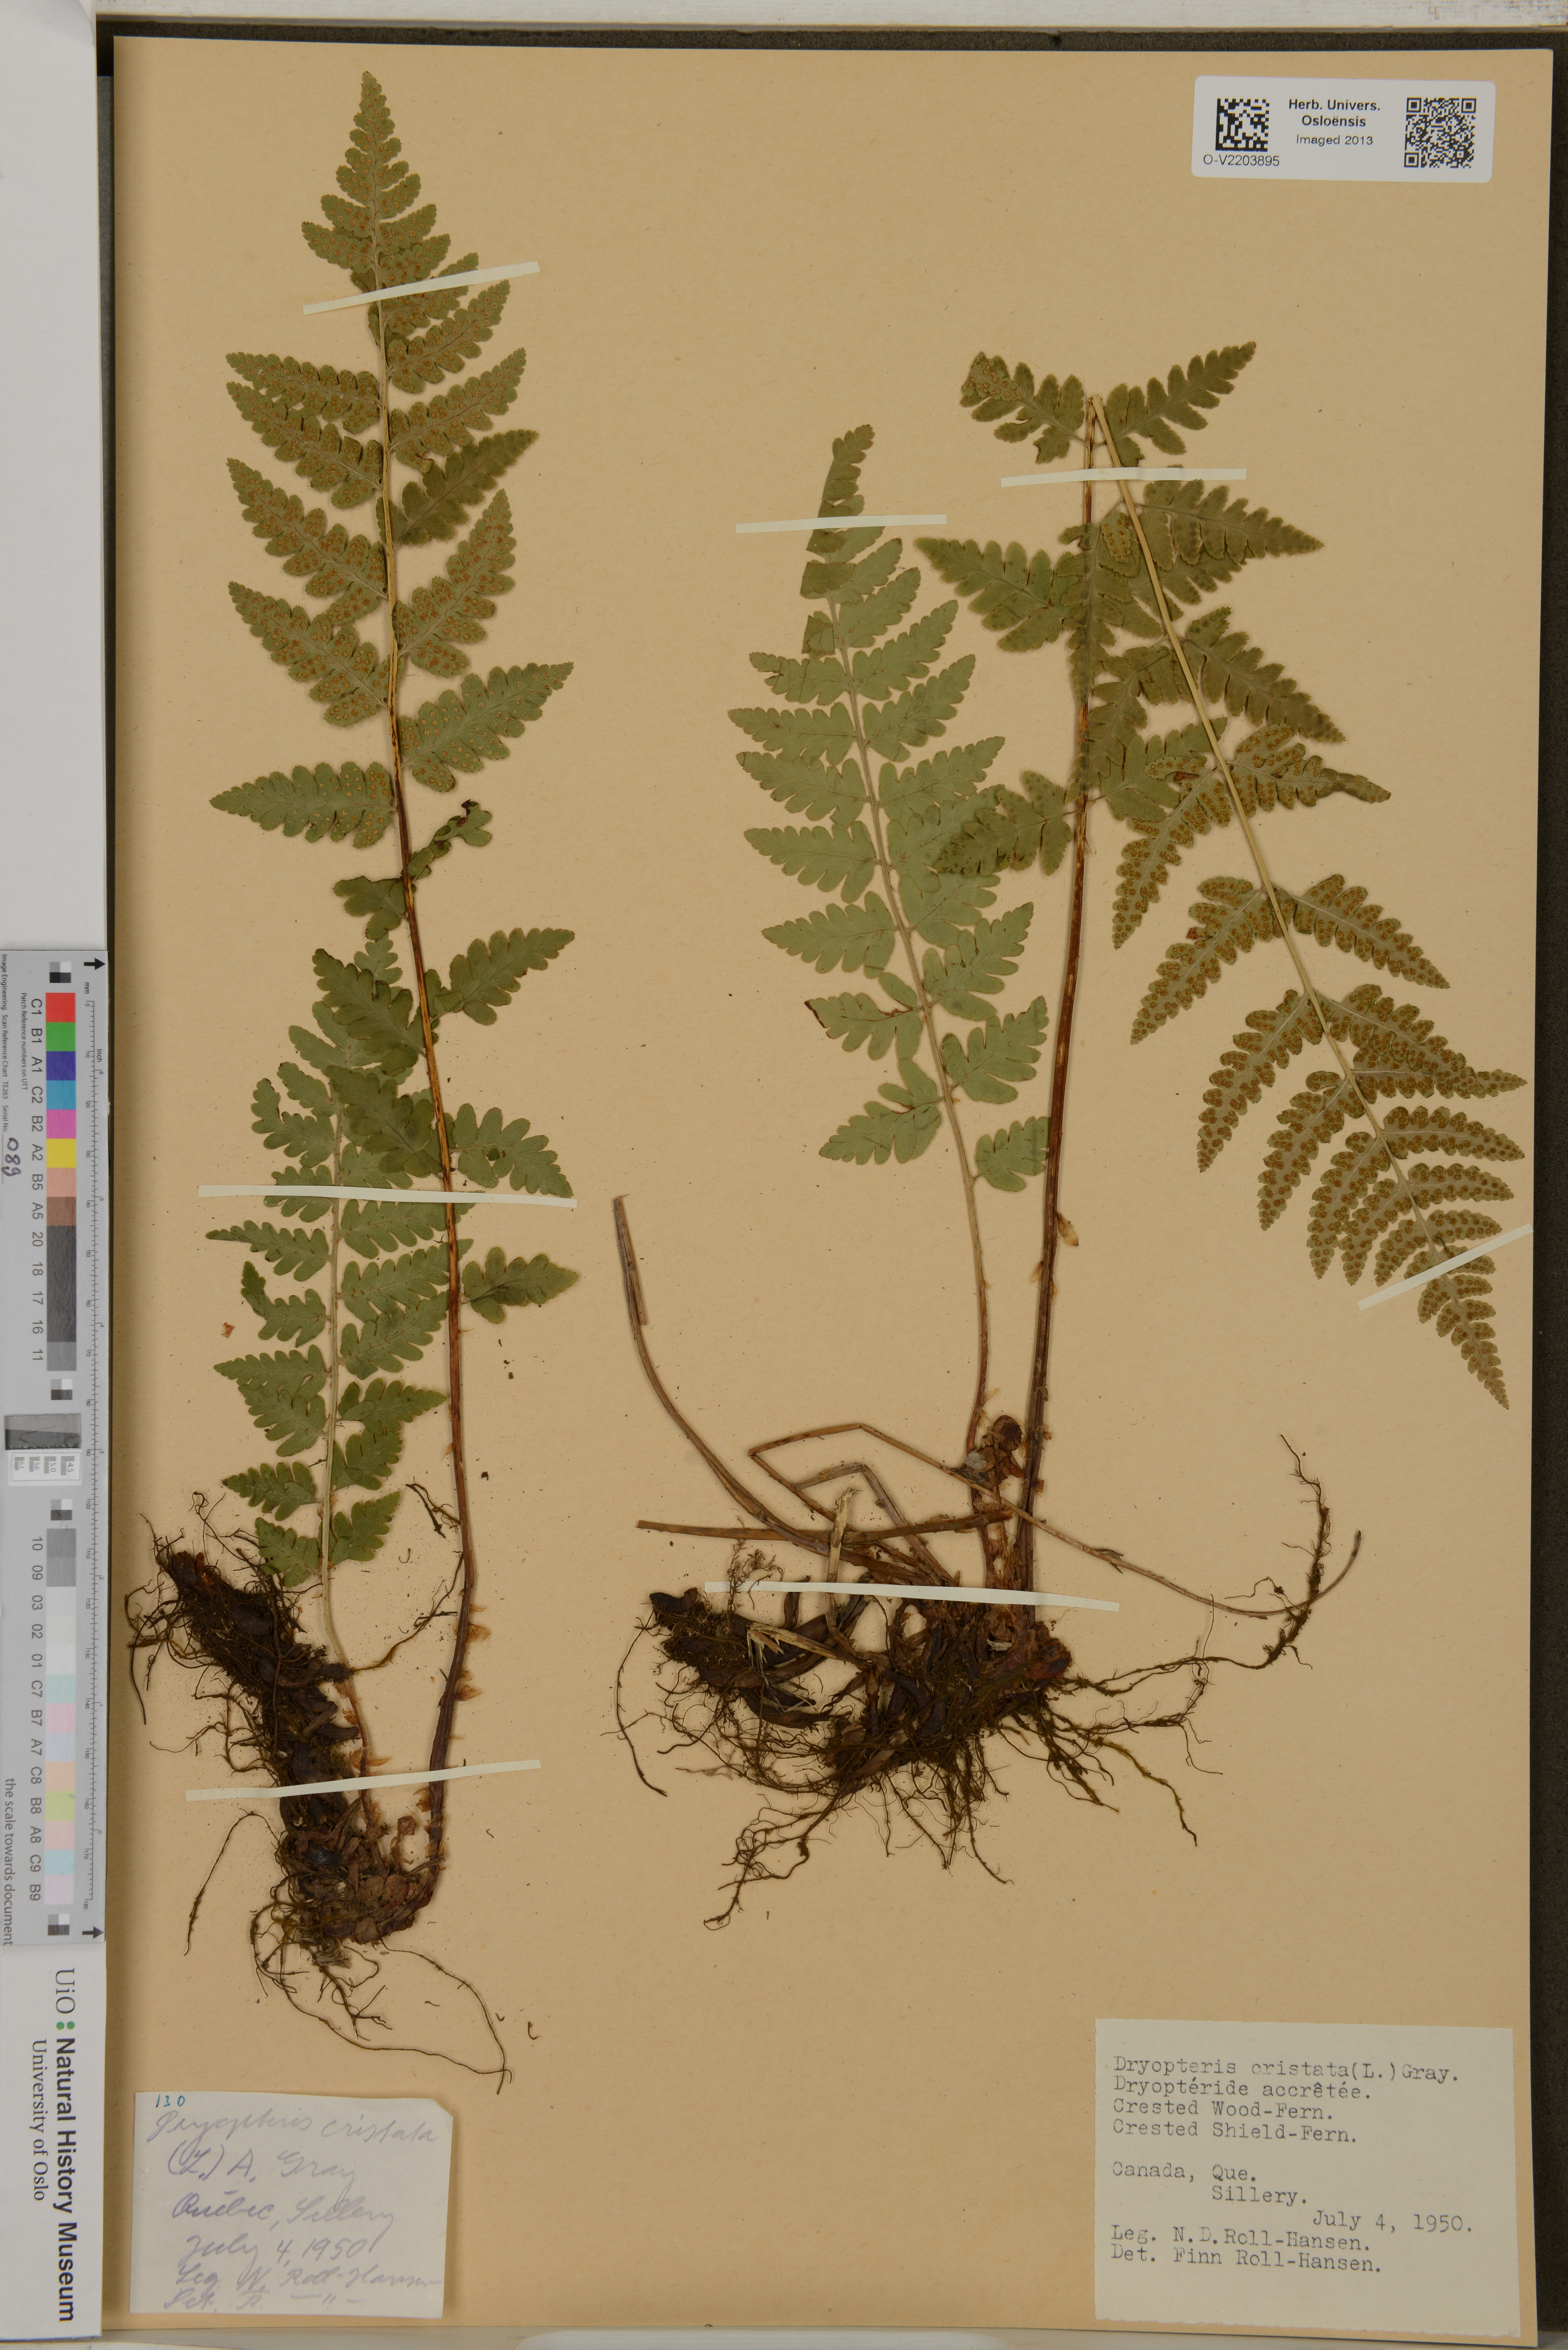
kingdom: Plantae
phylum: Tracheophyta
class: Polypodiopsida
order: Polypodiales
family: Dryopteridaceae
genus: Dryopteris
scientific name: Dryopteris cristata
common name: Crested wood fern
